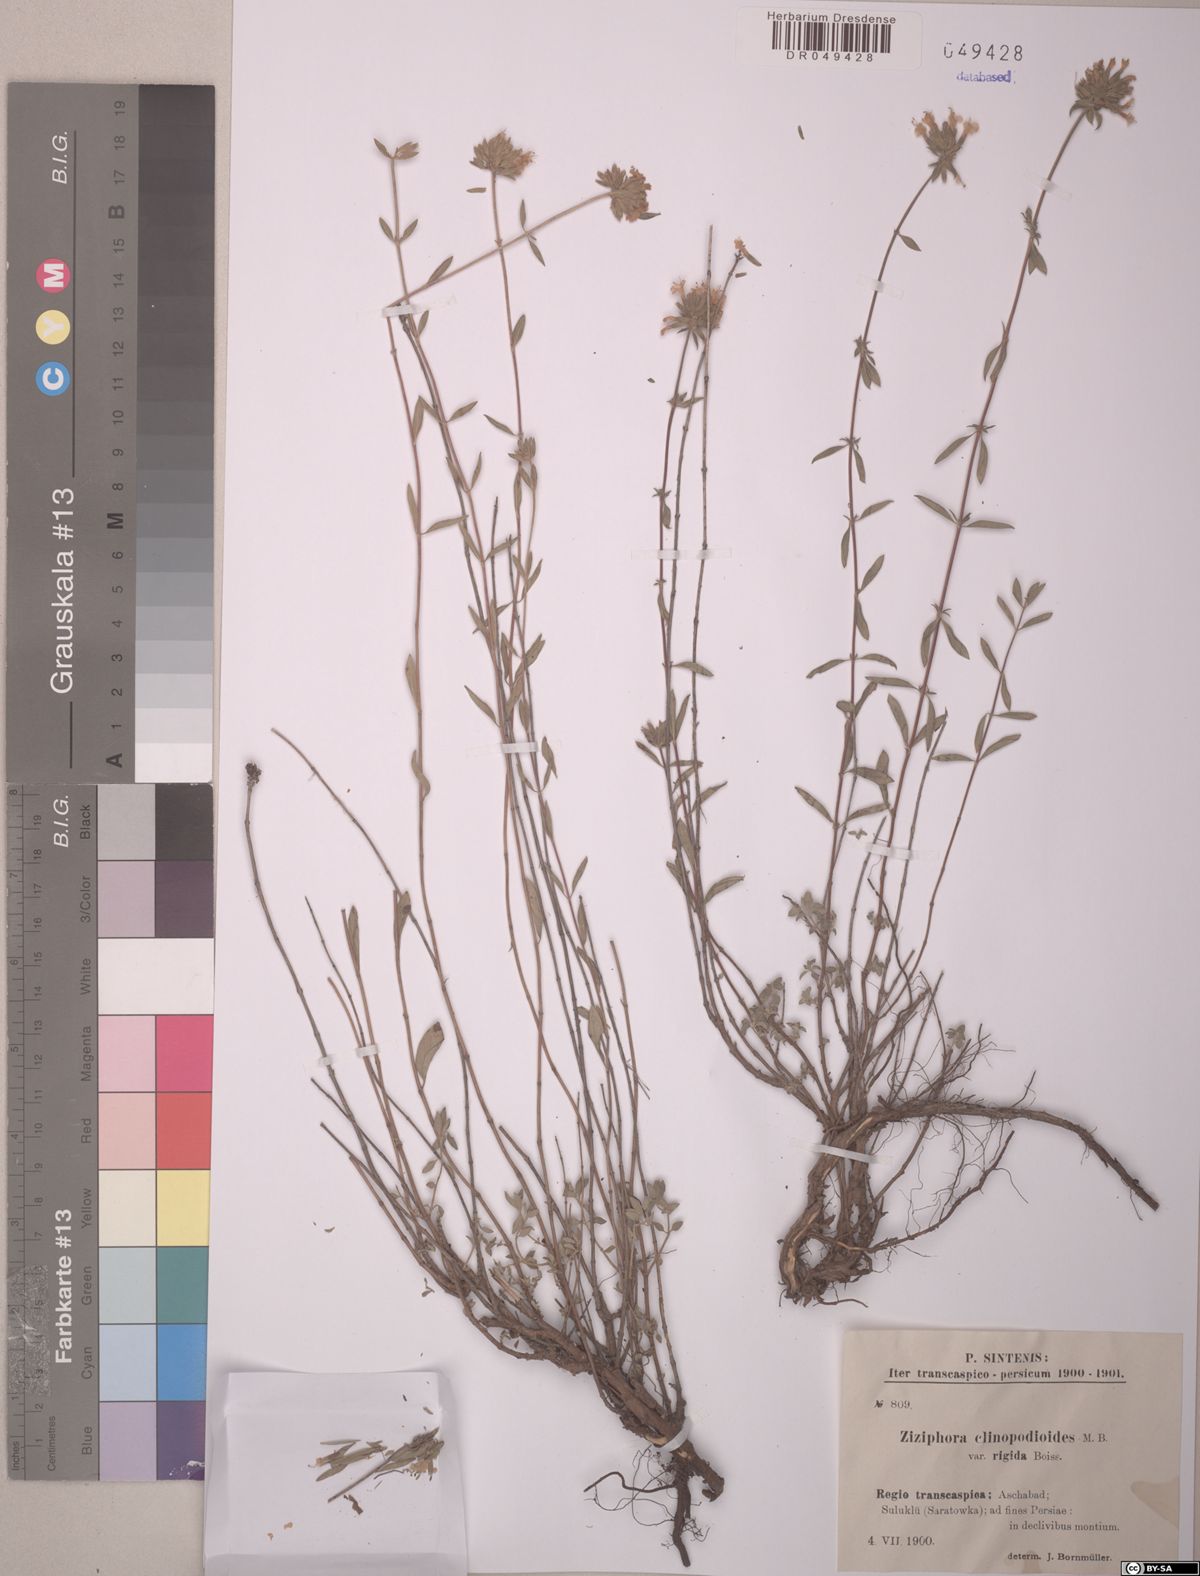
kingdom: Plantae
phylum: Tracheophyta
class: Magnoliopsida
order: Lamiales
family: Lamiaceae
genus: Ziziphora
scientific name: Ziziphora clinopodioides
